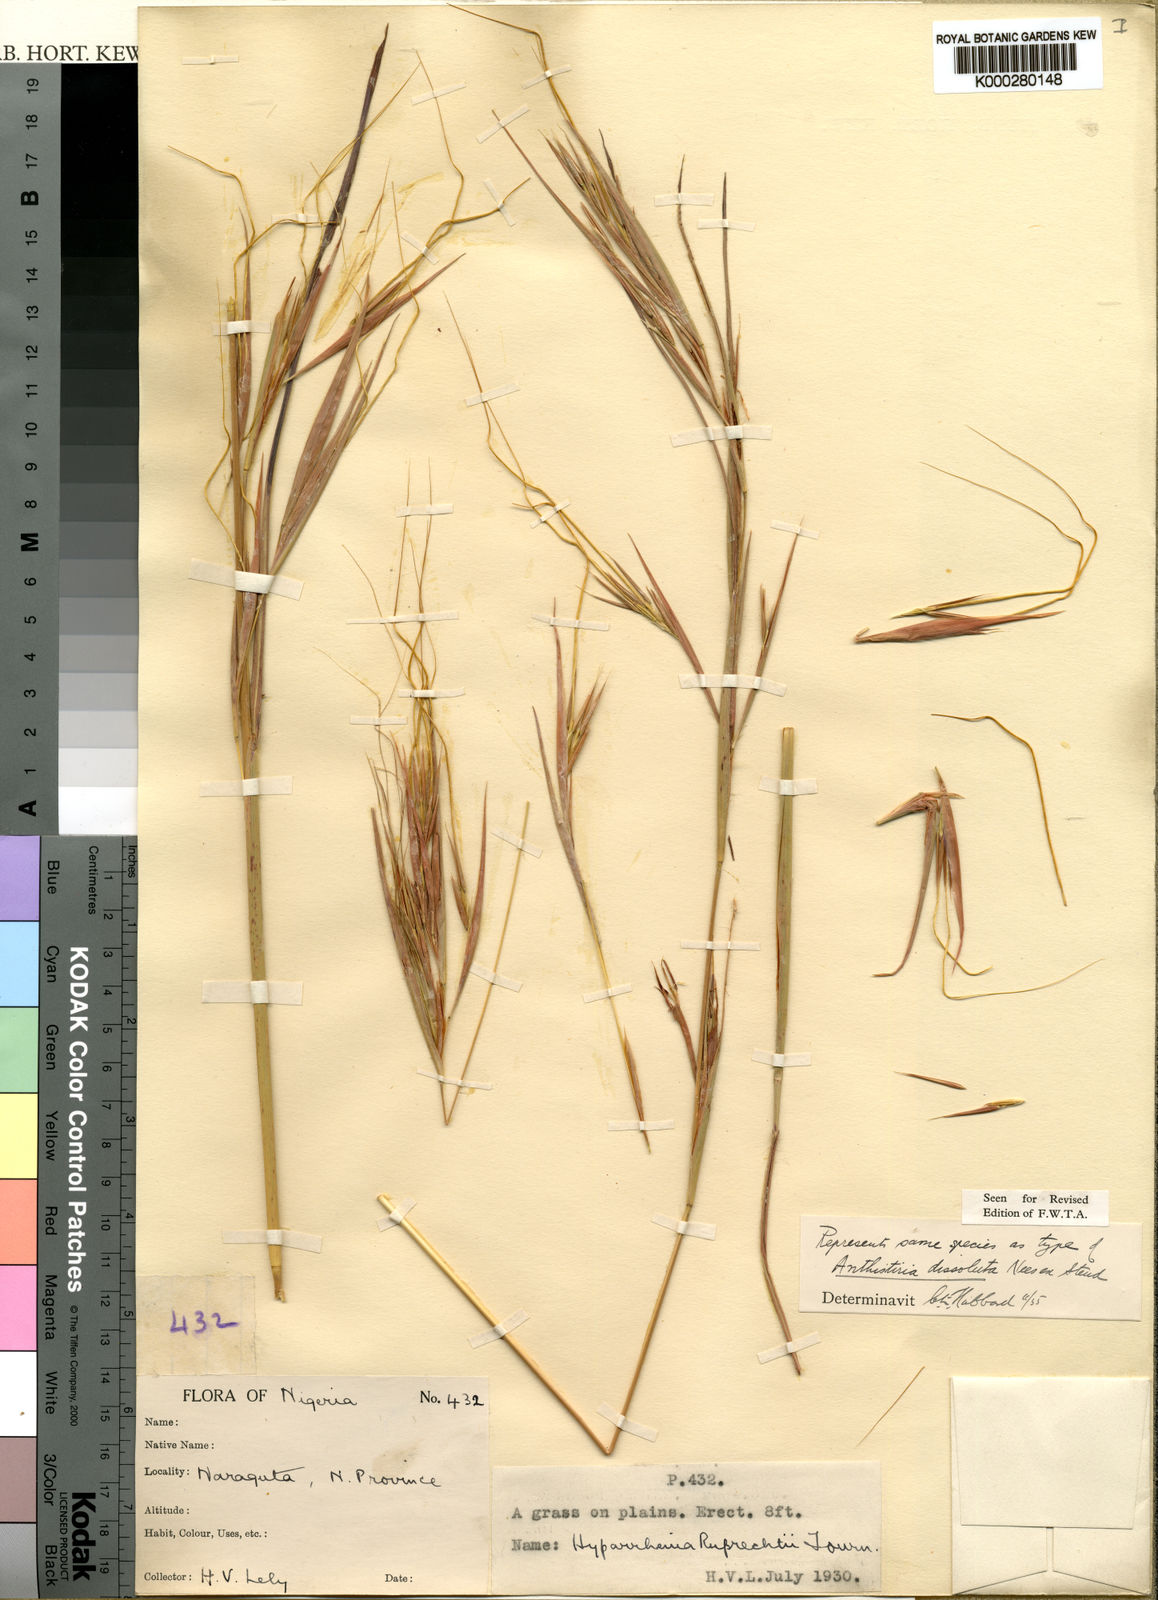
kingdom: Plantae
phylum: Tracheophyta
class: Liliopsida
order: Poales
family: Poaceae
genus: Hyperthelia
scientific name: Hyperthelia dissoluta
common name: Yellow thatching grass
